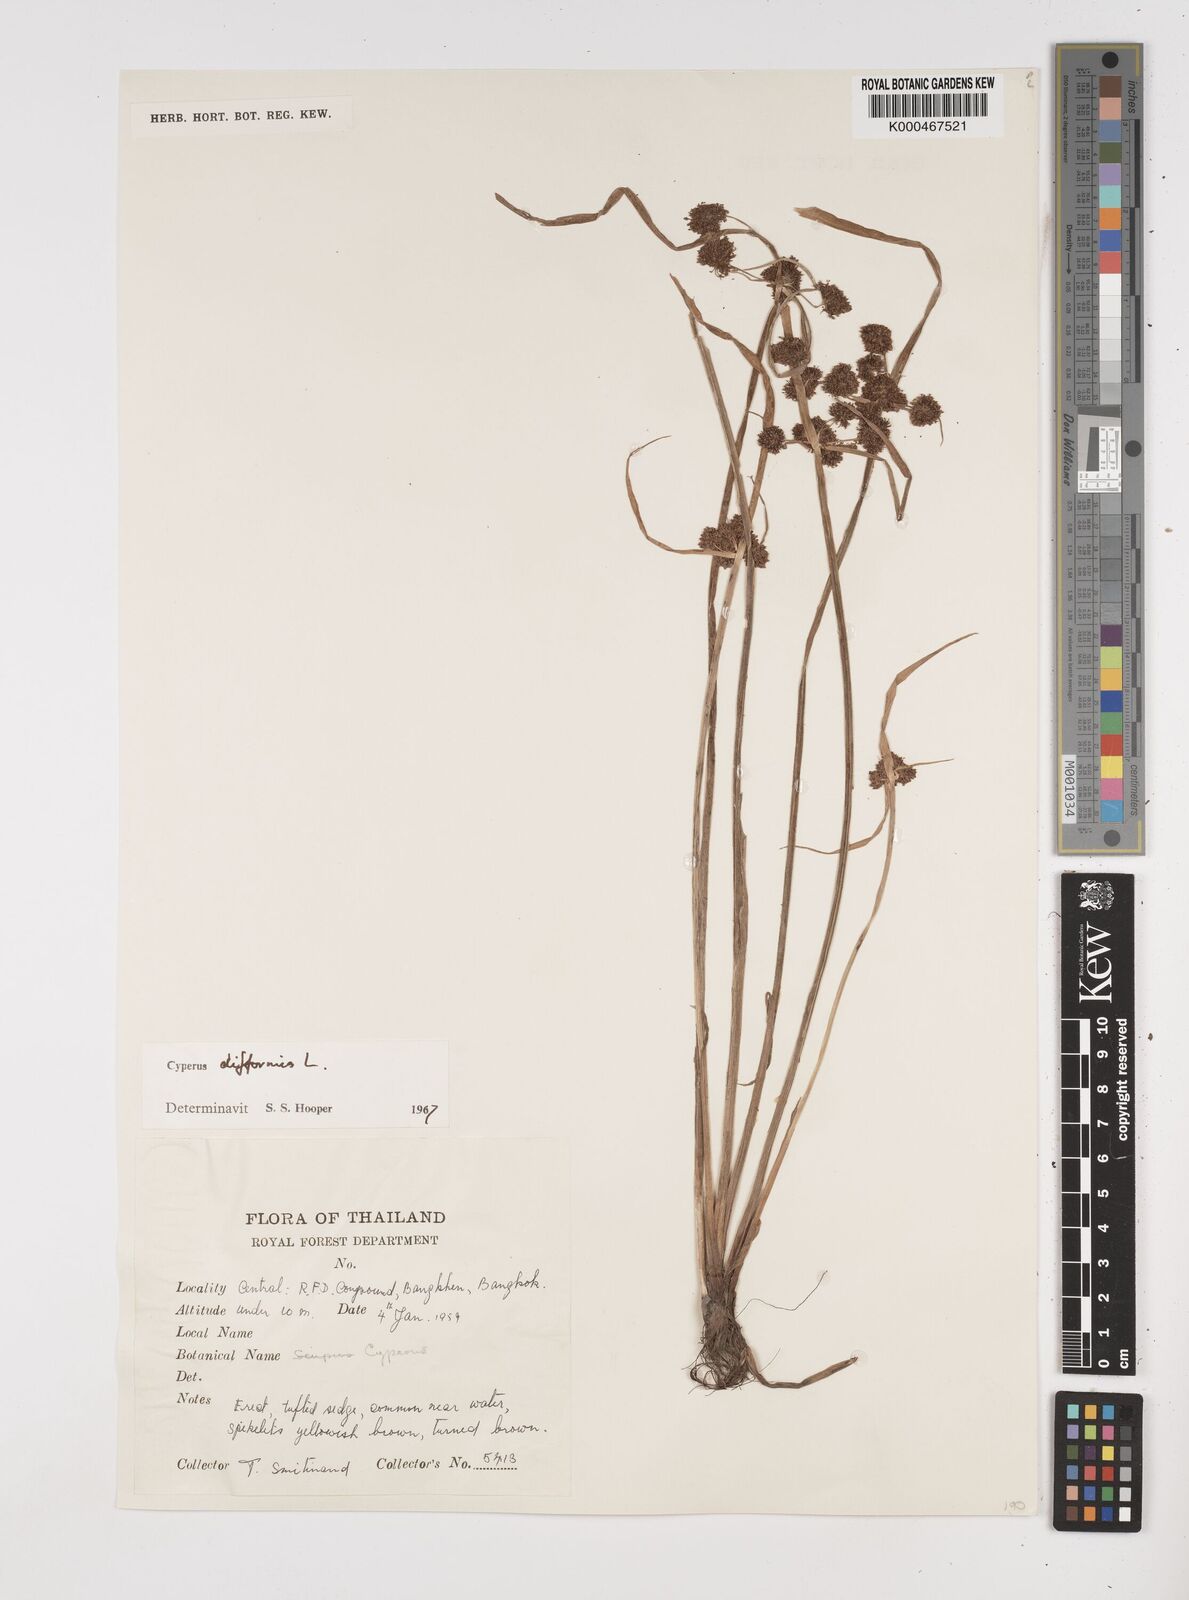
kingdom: Plantae
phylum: Tracheophyta
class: Liliopsida
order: Poales
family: Cyperaceae
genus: Cyperus
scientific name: Cyperus difformis
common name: Variable flatsedge
